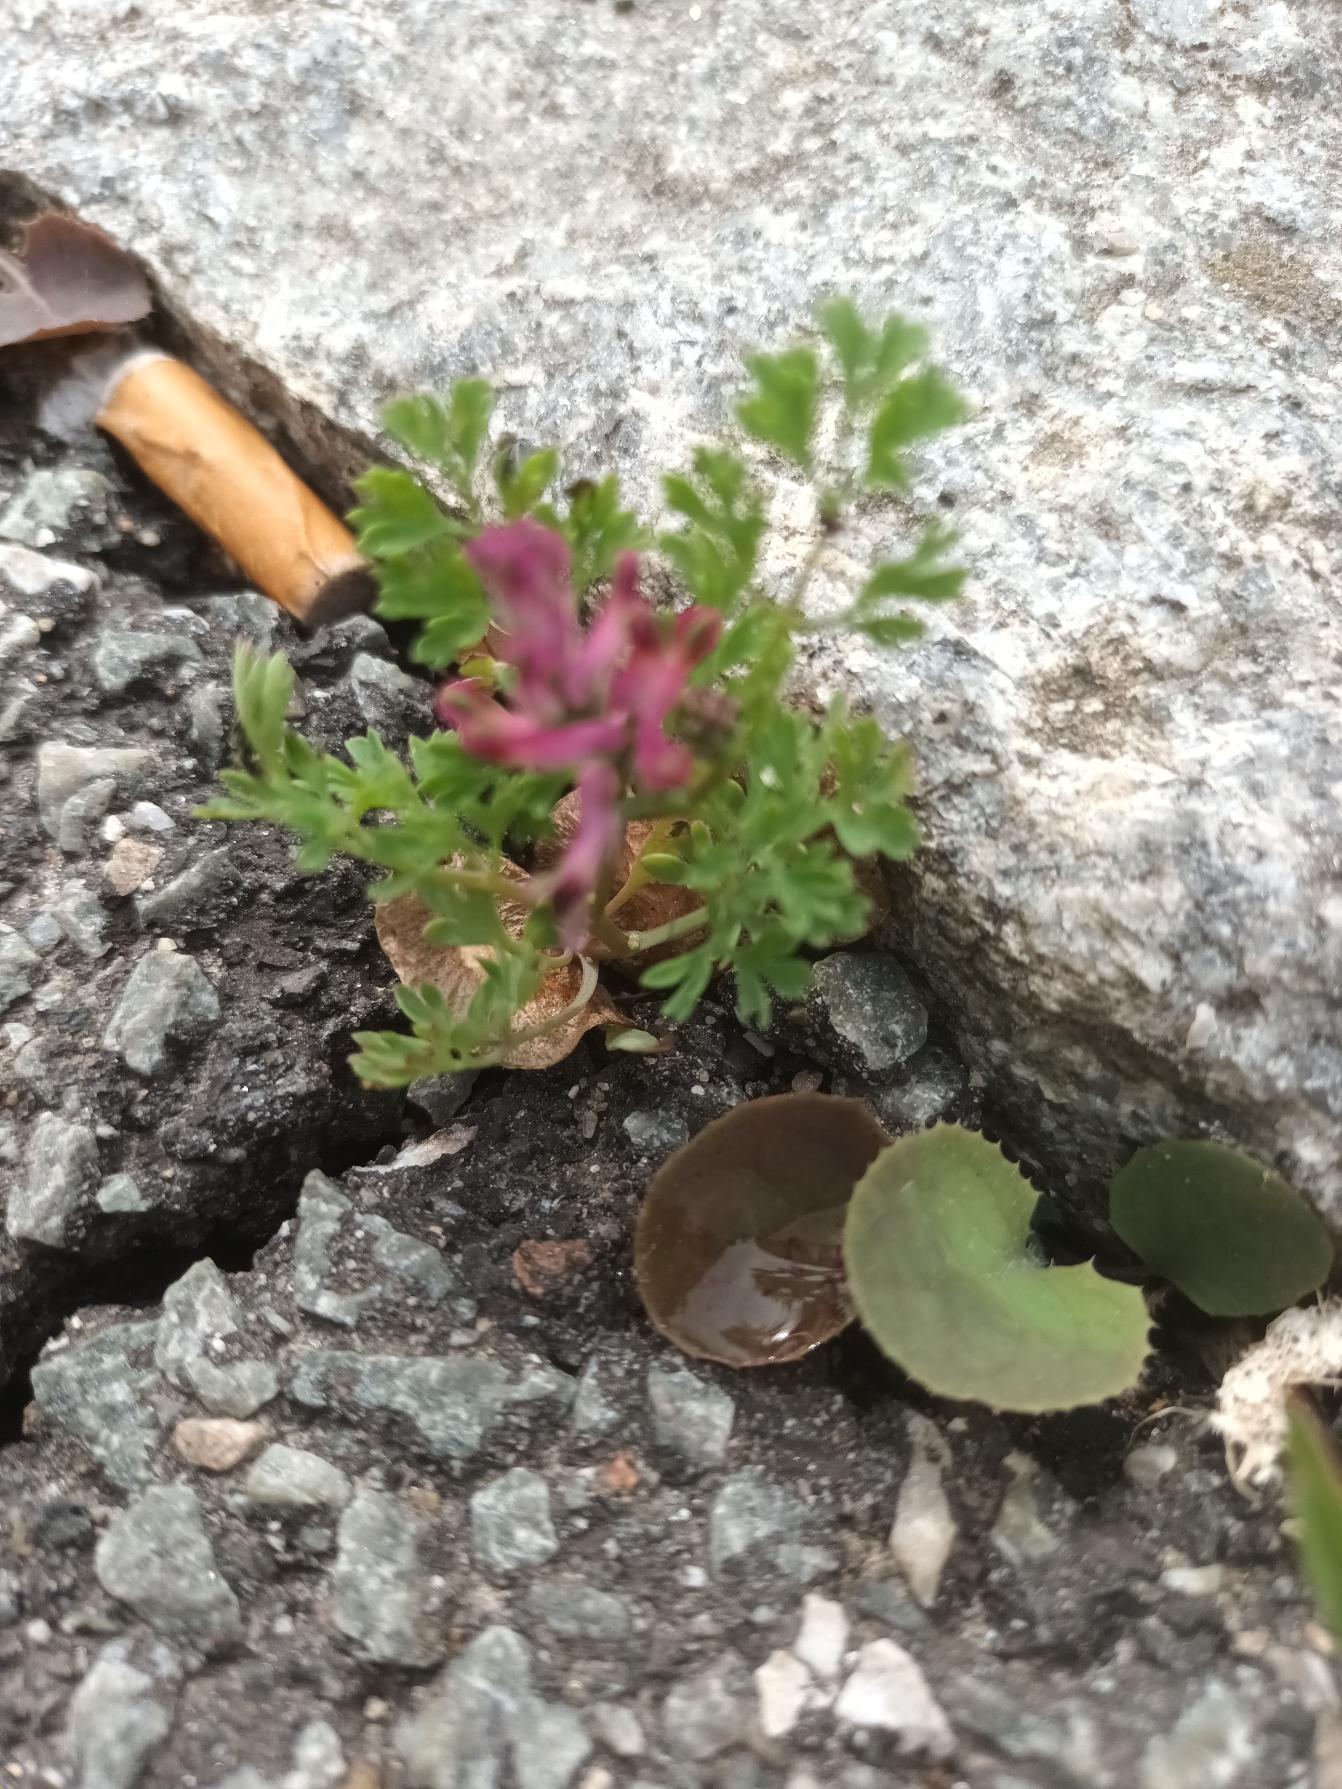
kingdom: Plantae
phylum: Tracheophyta
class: Magnoliopsida
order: Ranunculales
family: Papaveraceae
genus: Fumaria
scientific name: Fumaria officinalis
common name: Læge-jordrøg
